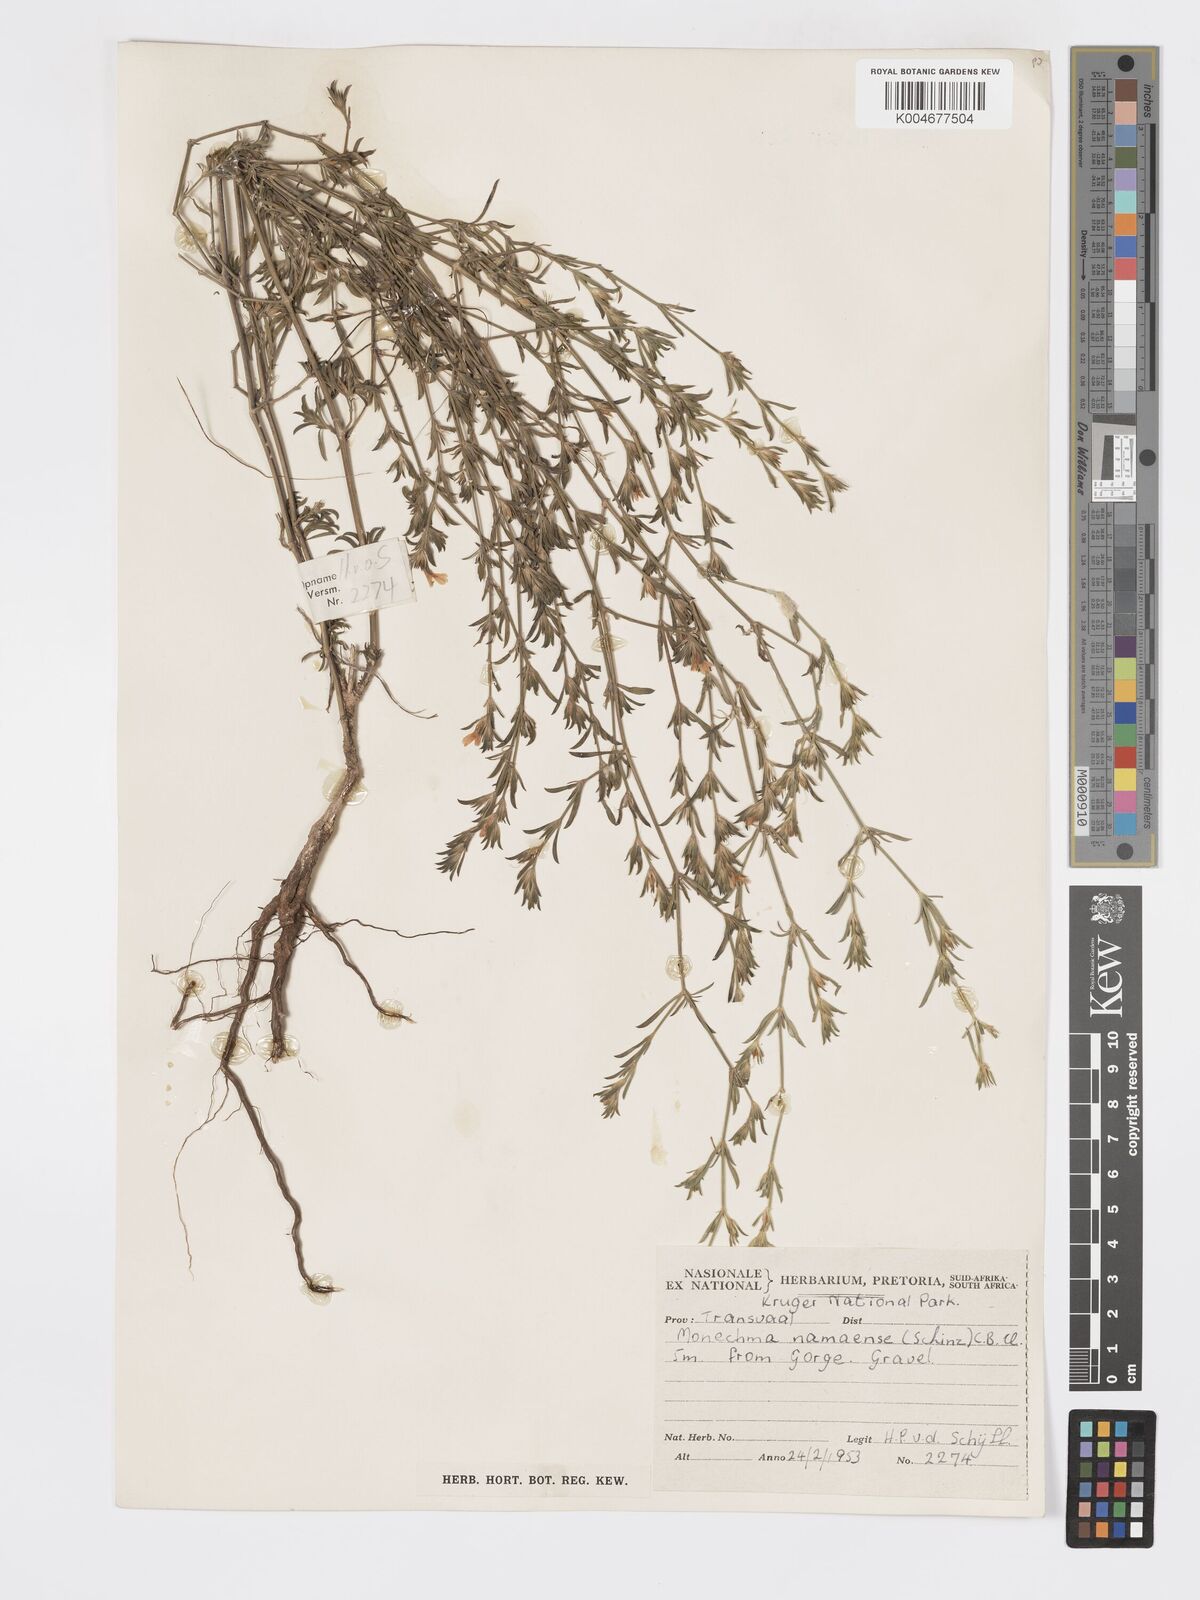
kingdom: Plantae
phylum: Tracheophyta
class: Magnoliopsida
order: Lamiales
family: Acanthaceae
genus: Pogonospermum
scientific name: Pogonospermum
